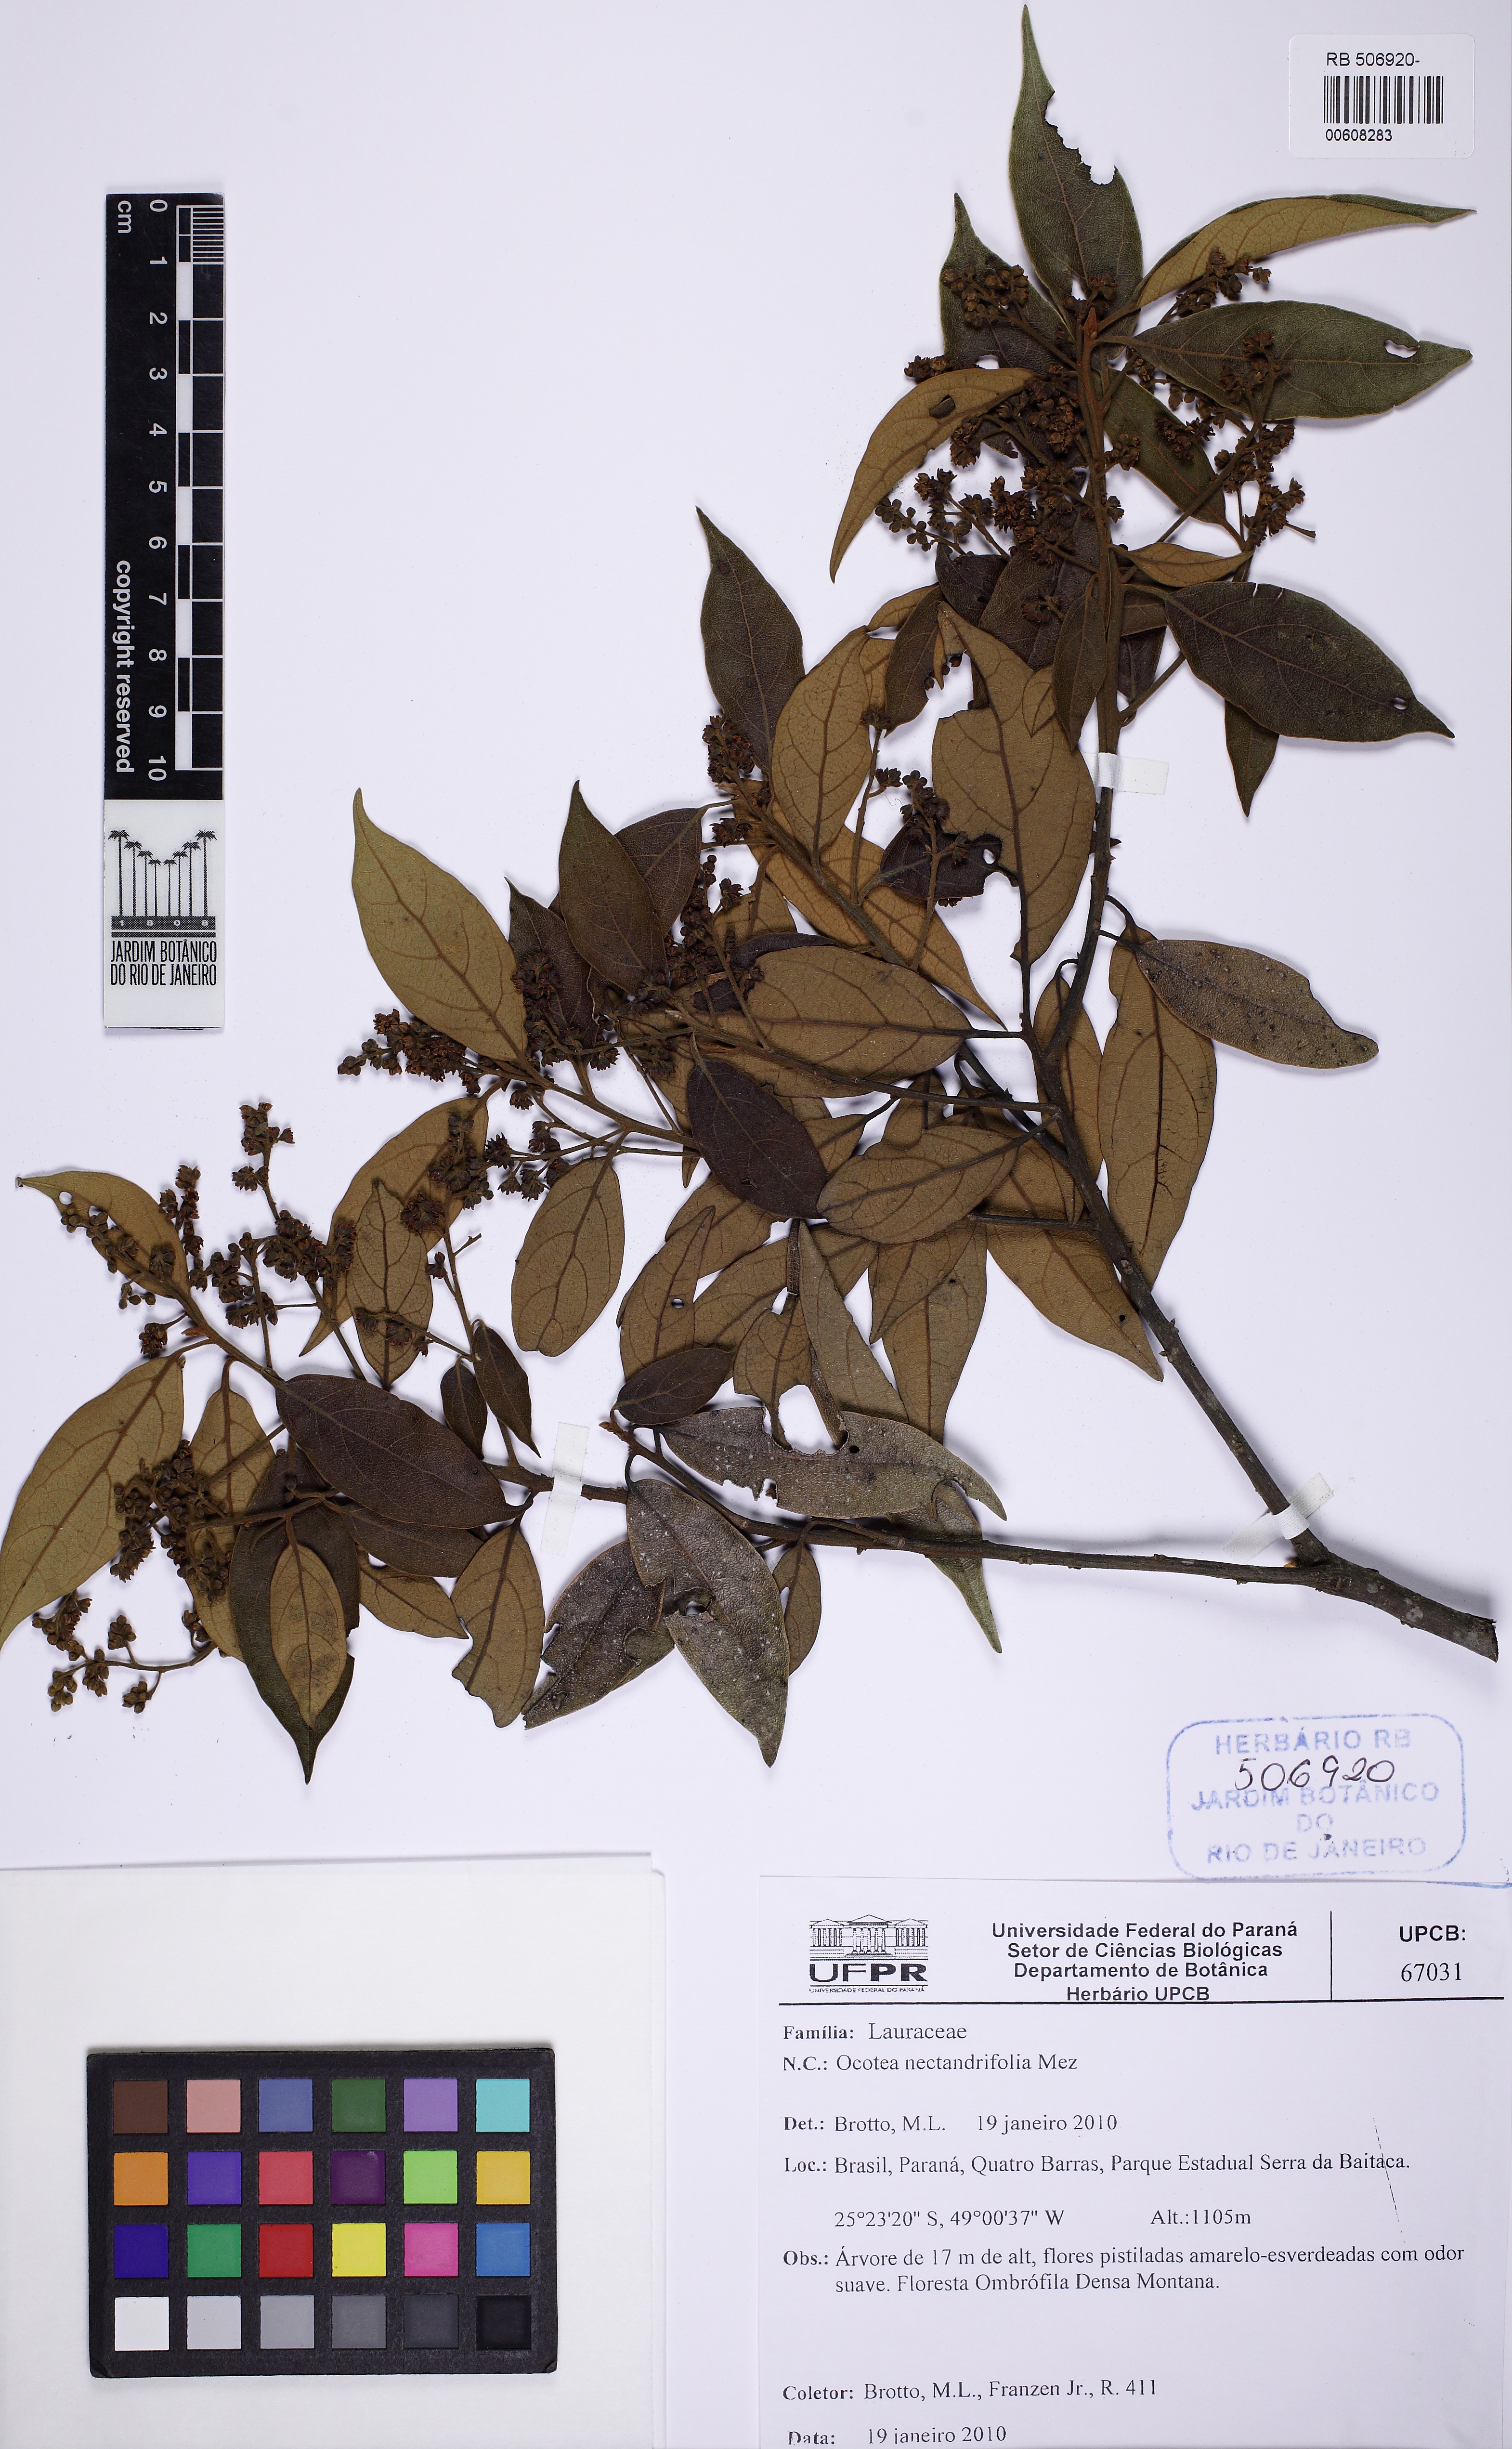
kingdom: Plantae
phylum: Tracheophyta
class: Magnoliopsida
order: Laurales
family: Lauraceae
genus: Ocotea
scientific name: Ocotea nectandrifolia
